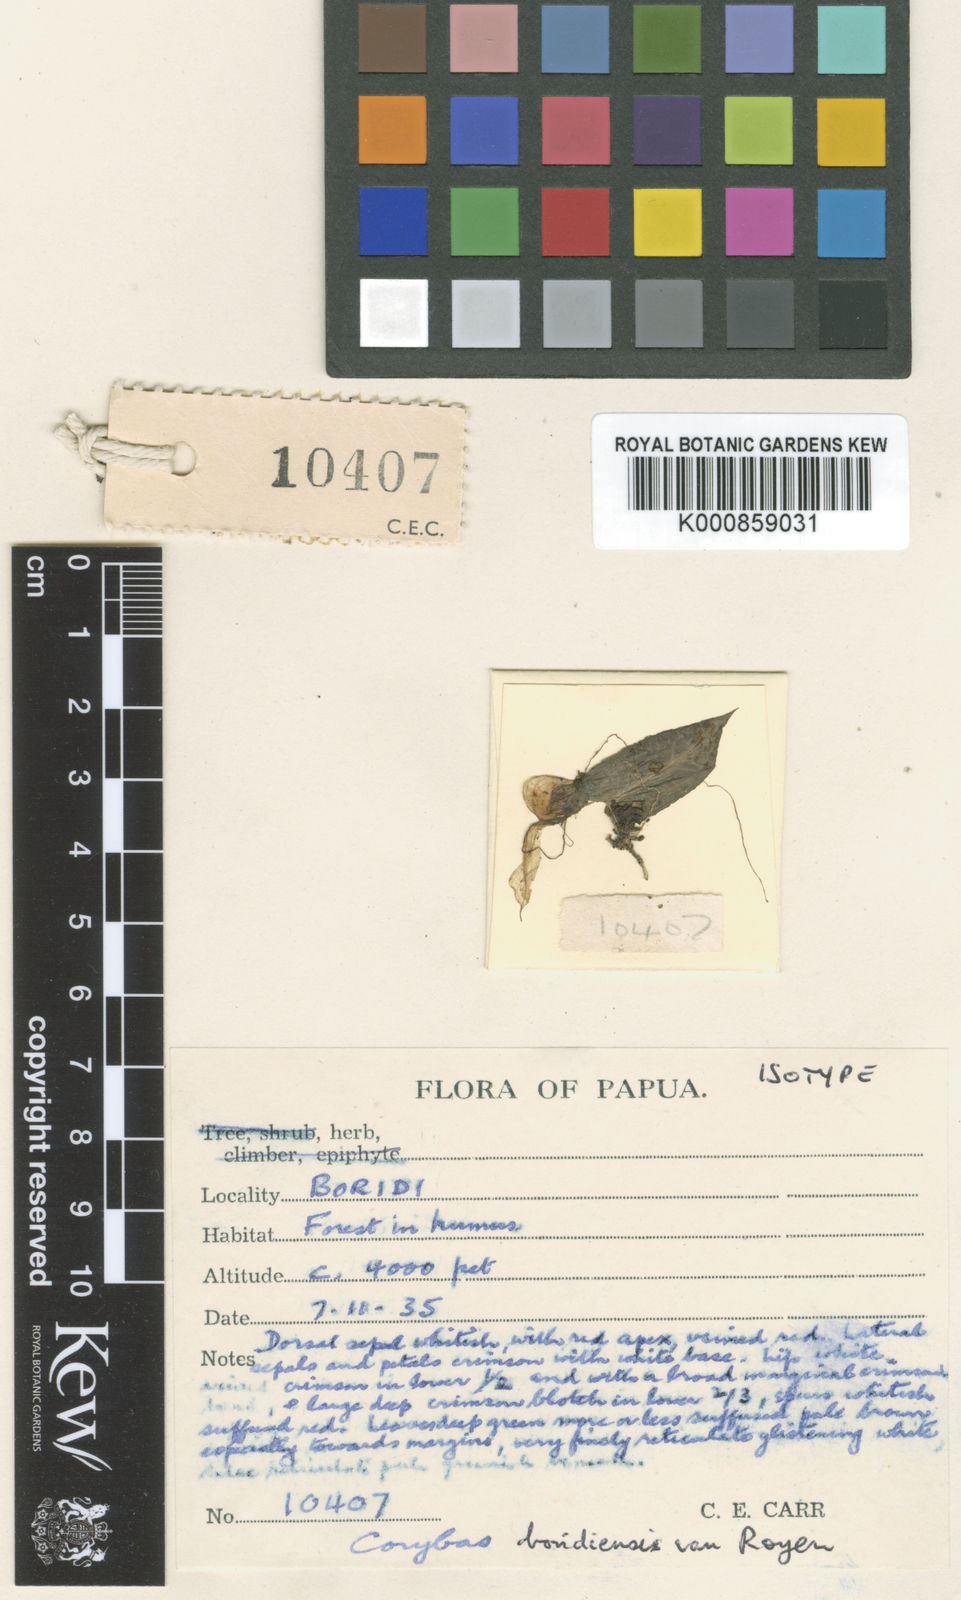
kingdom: Plantae
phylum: Tracheophyta
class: Liliopsida
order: Asparagales
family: Orchidaceae
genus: Corybas
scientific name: Corybas boridiensis
